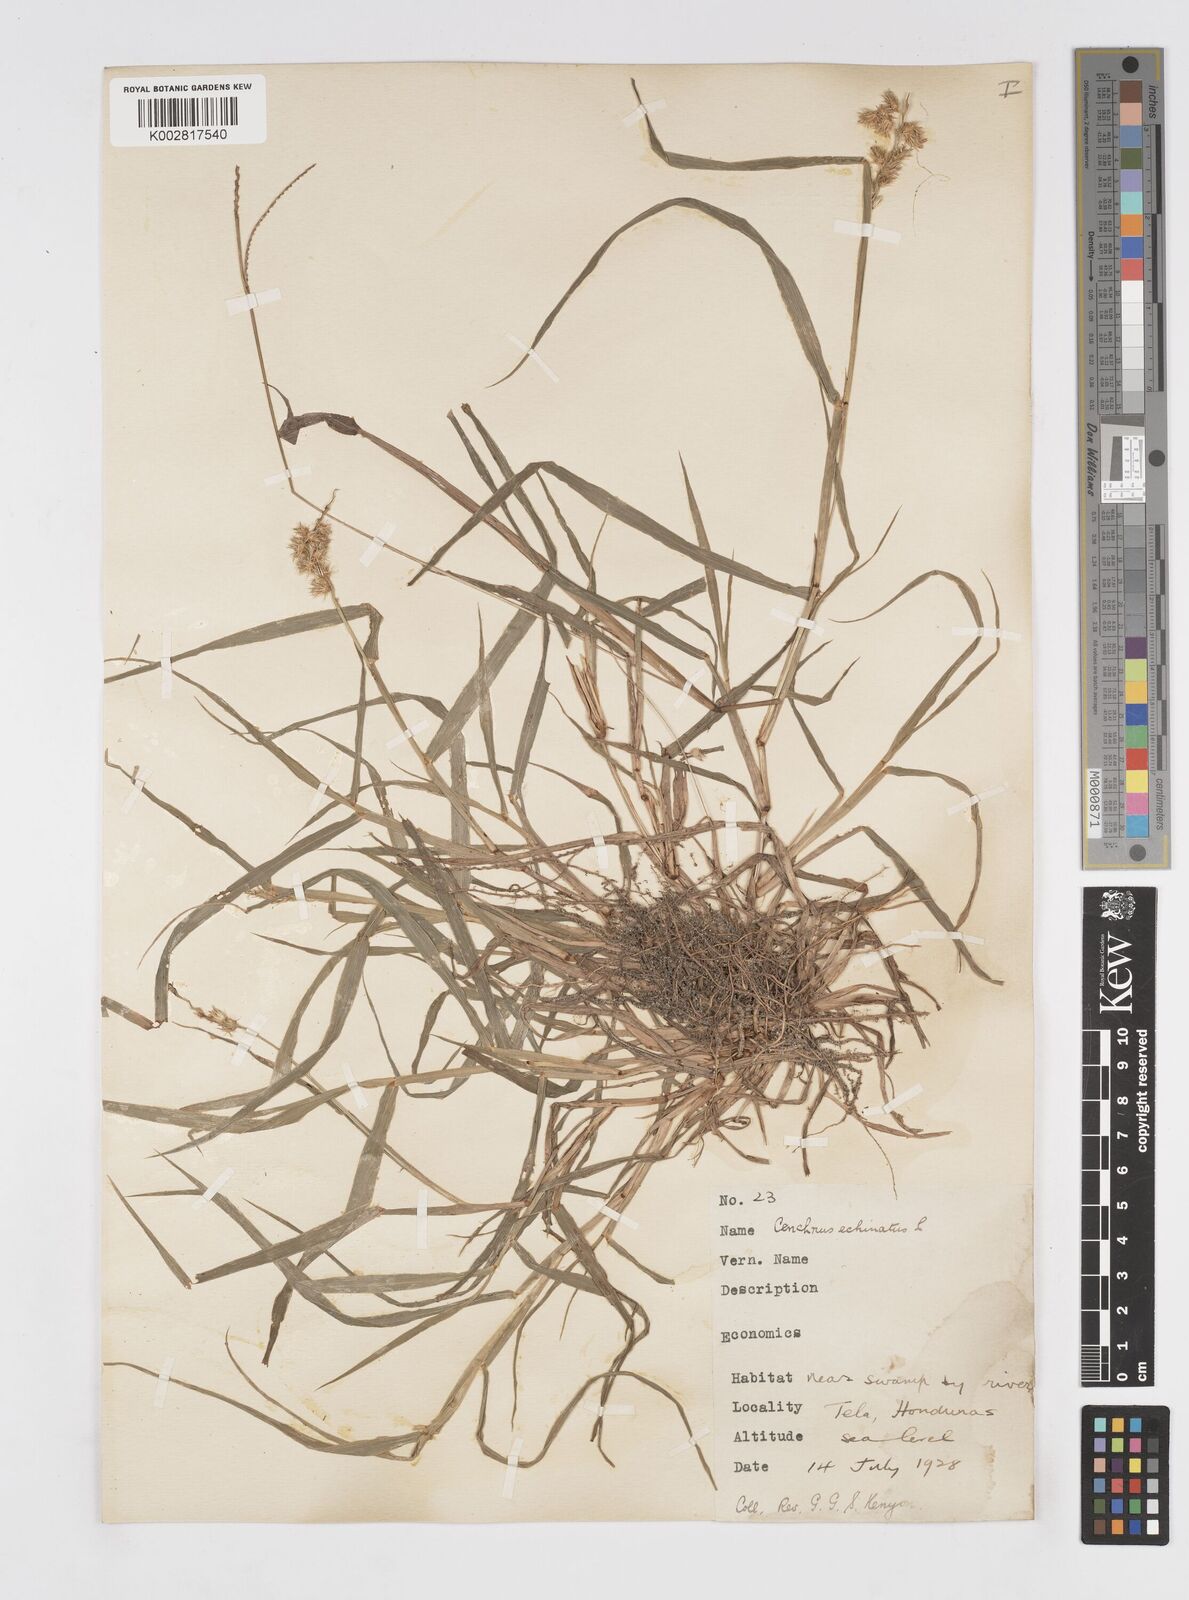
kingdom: Plantae
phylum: Tracheophyta
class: Liliopsida
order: Poales
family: Poaceae
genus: Cenchrus
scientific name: Cenchrus
